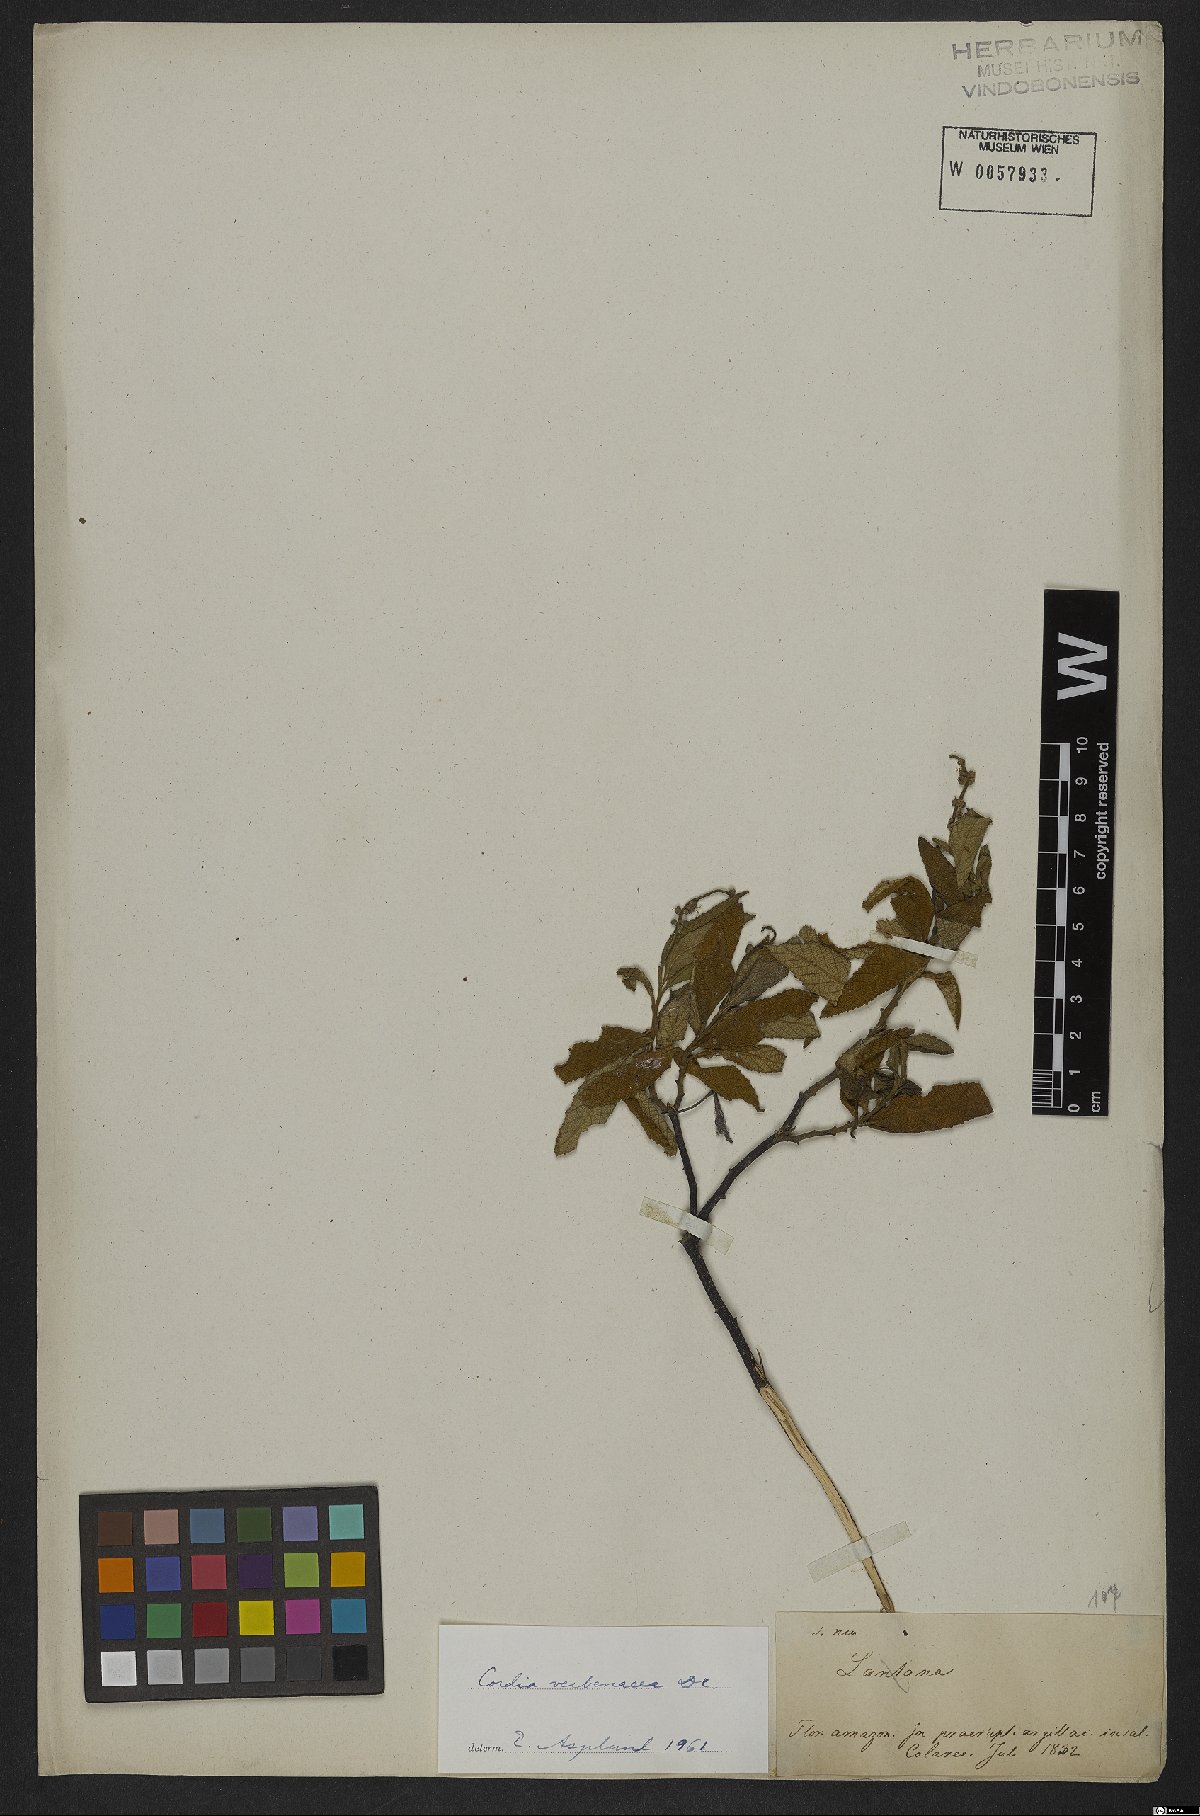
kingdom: Plantae
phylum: Tracheophyta
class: Magnoliopsida
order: Boraginales
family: Cordiaceae
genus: Varronia
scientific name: Varronia curassavica
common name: Black sage
